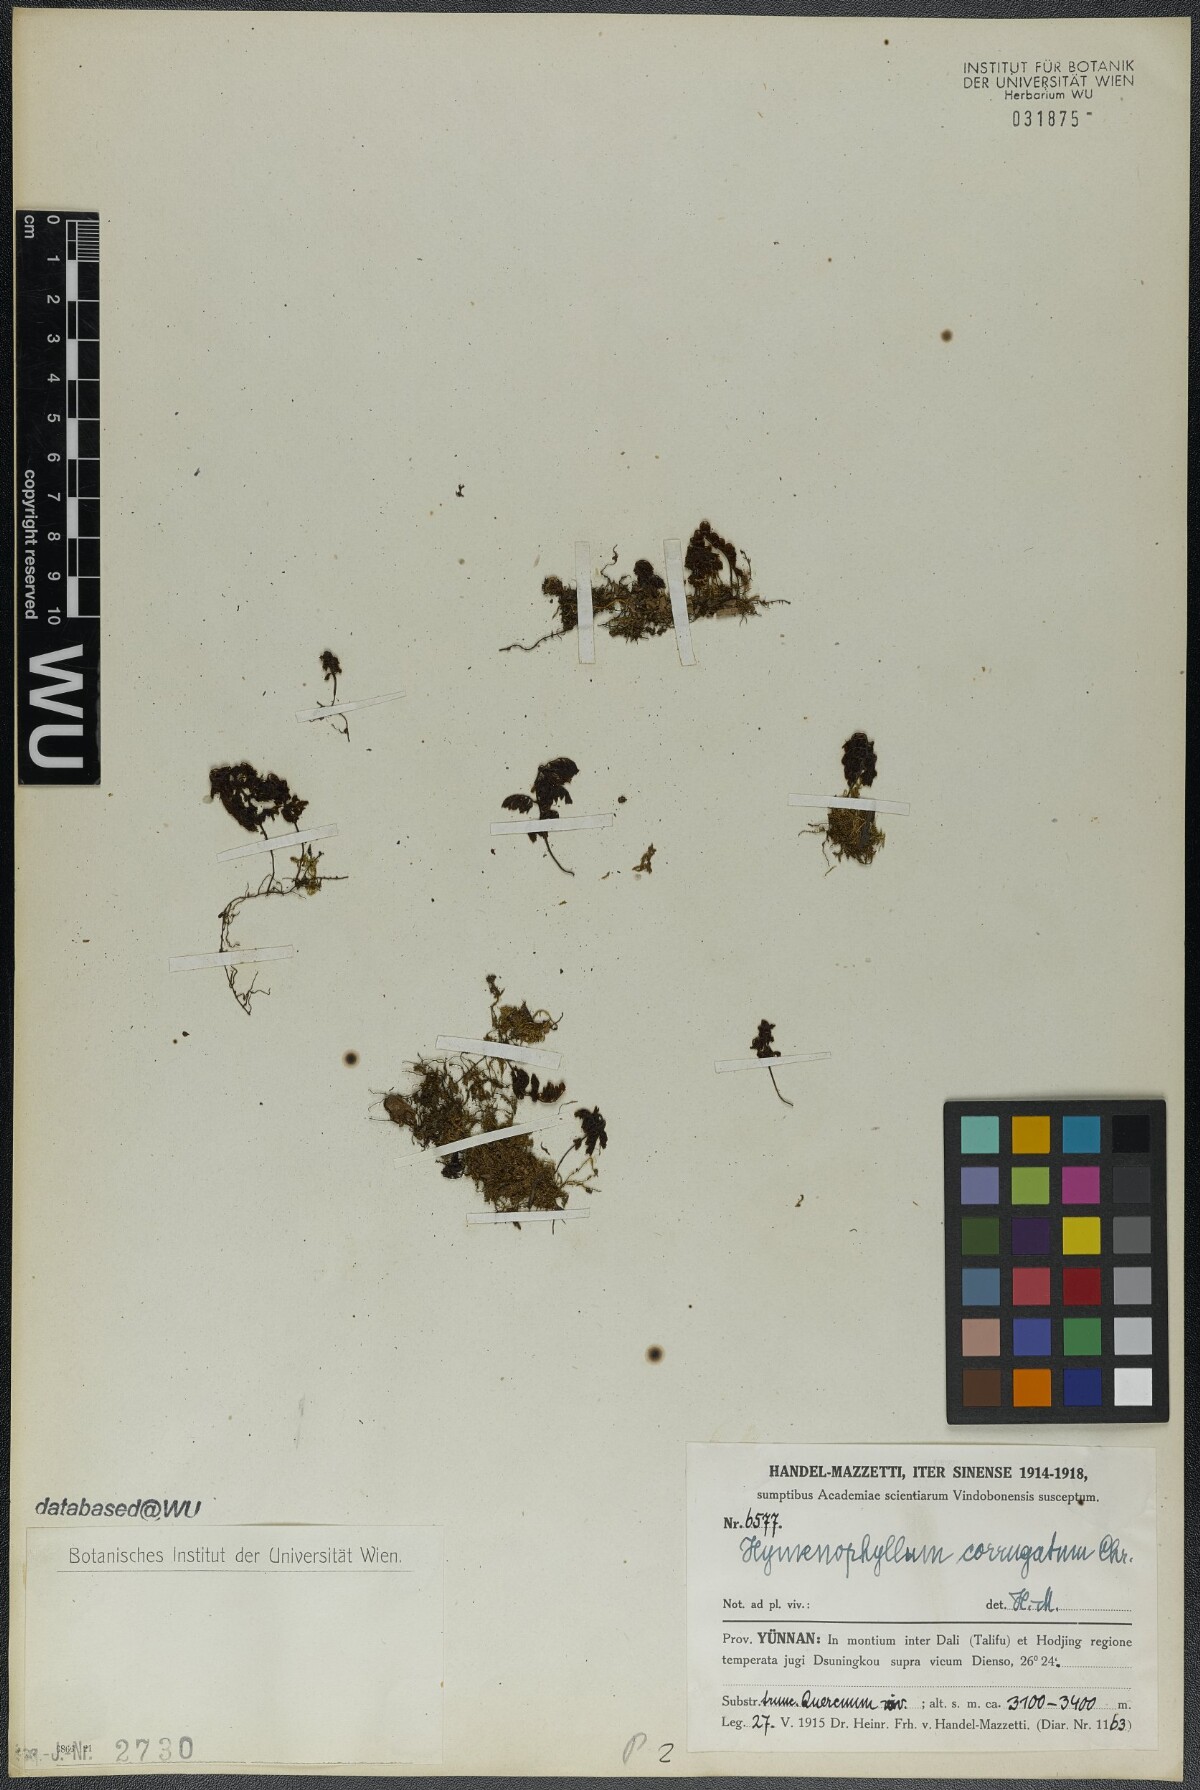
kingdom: Plantae
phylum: Tracheophyta
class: Polypodiopsida
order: Hymenophyllales
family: Hymenophyllaceae
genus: Hymenophyllum
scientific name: Hymenophyllum corrugatum
